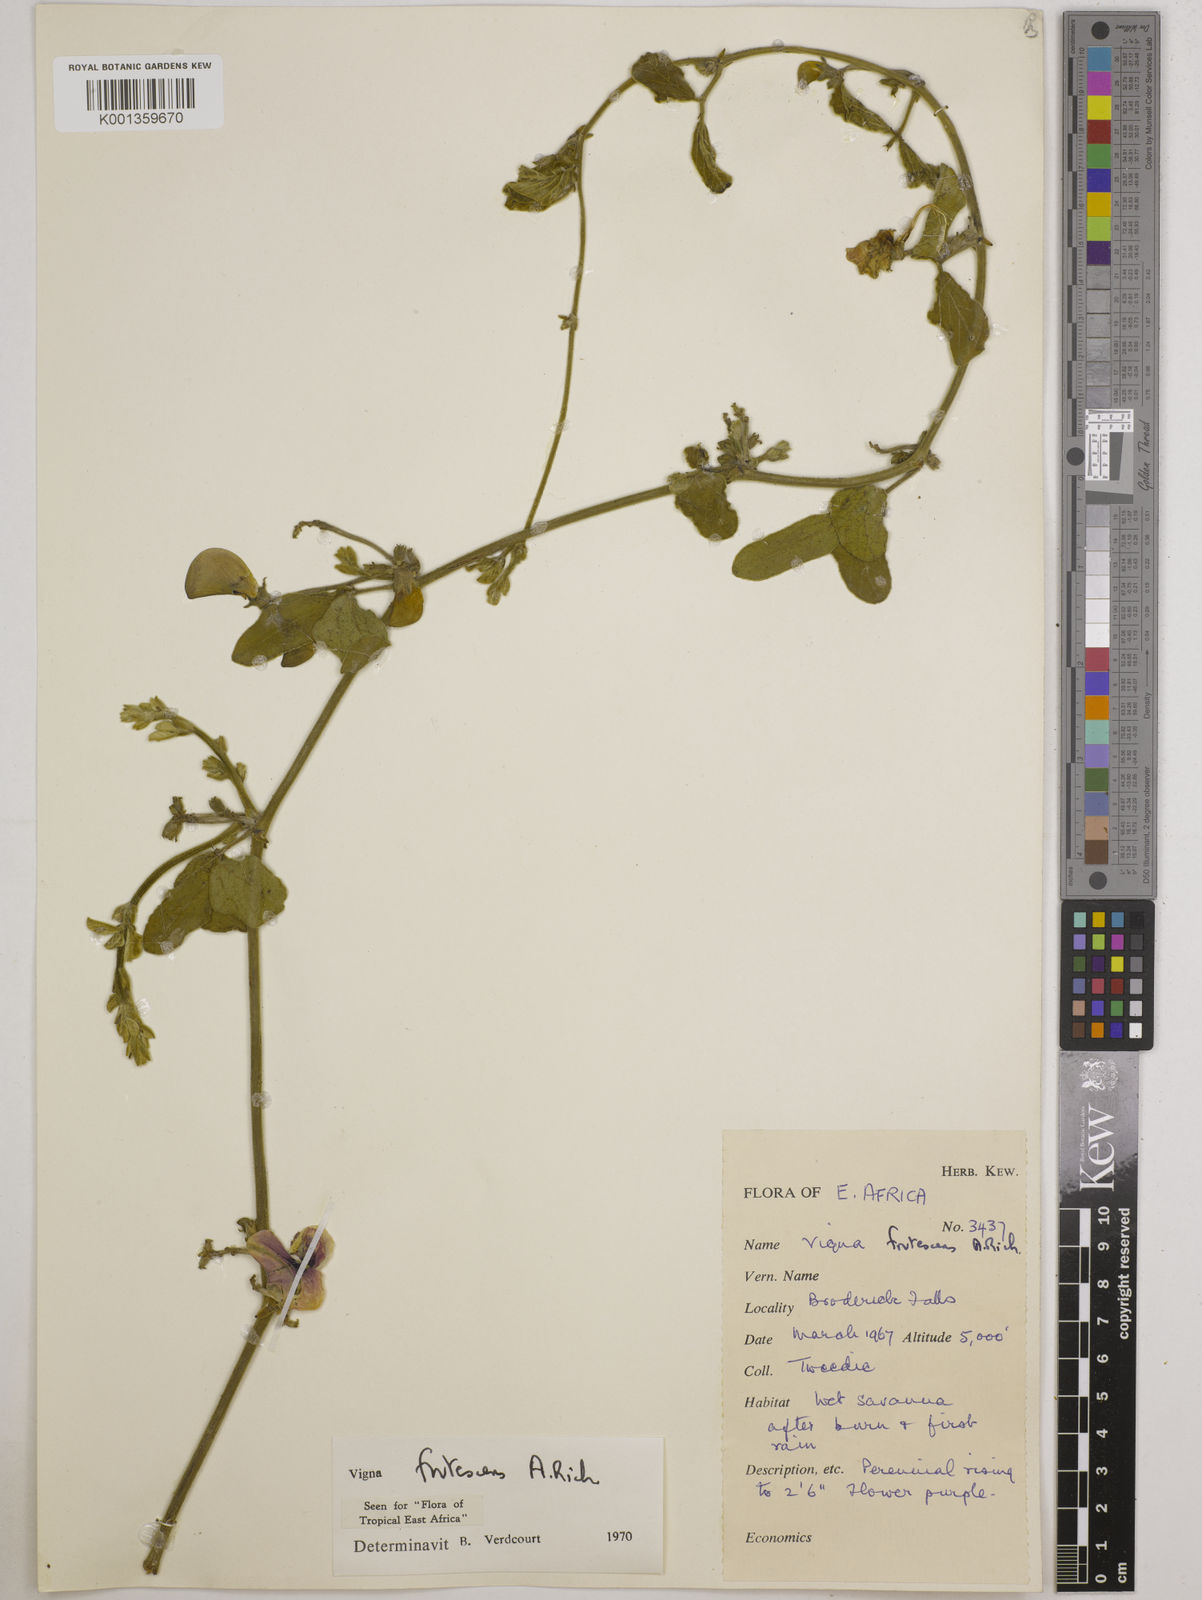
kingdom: Plantae
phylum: Tracheophyta
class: Magnoliopsida
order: Fabales
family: Fabaceae
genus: Vigna
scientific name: Vigna frutescens
